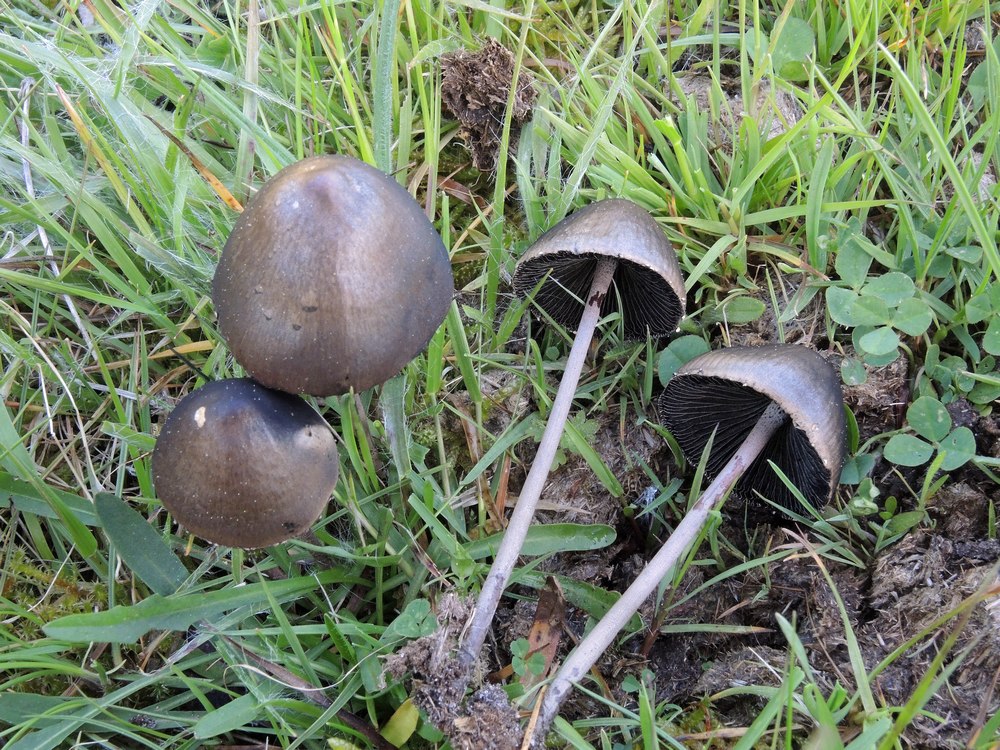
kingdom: Fungi
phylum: Basidiomycota
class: Agaricomycetes
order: Agaricales
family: Bolbitiaceae
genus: Panaeolus
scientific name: Panaeolus papilionaceus
